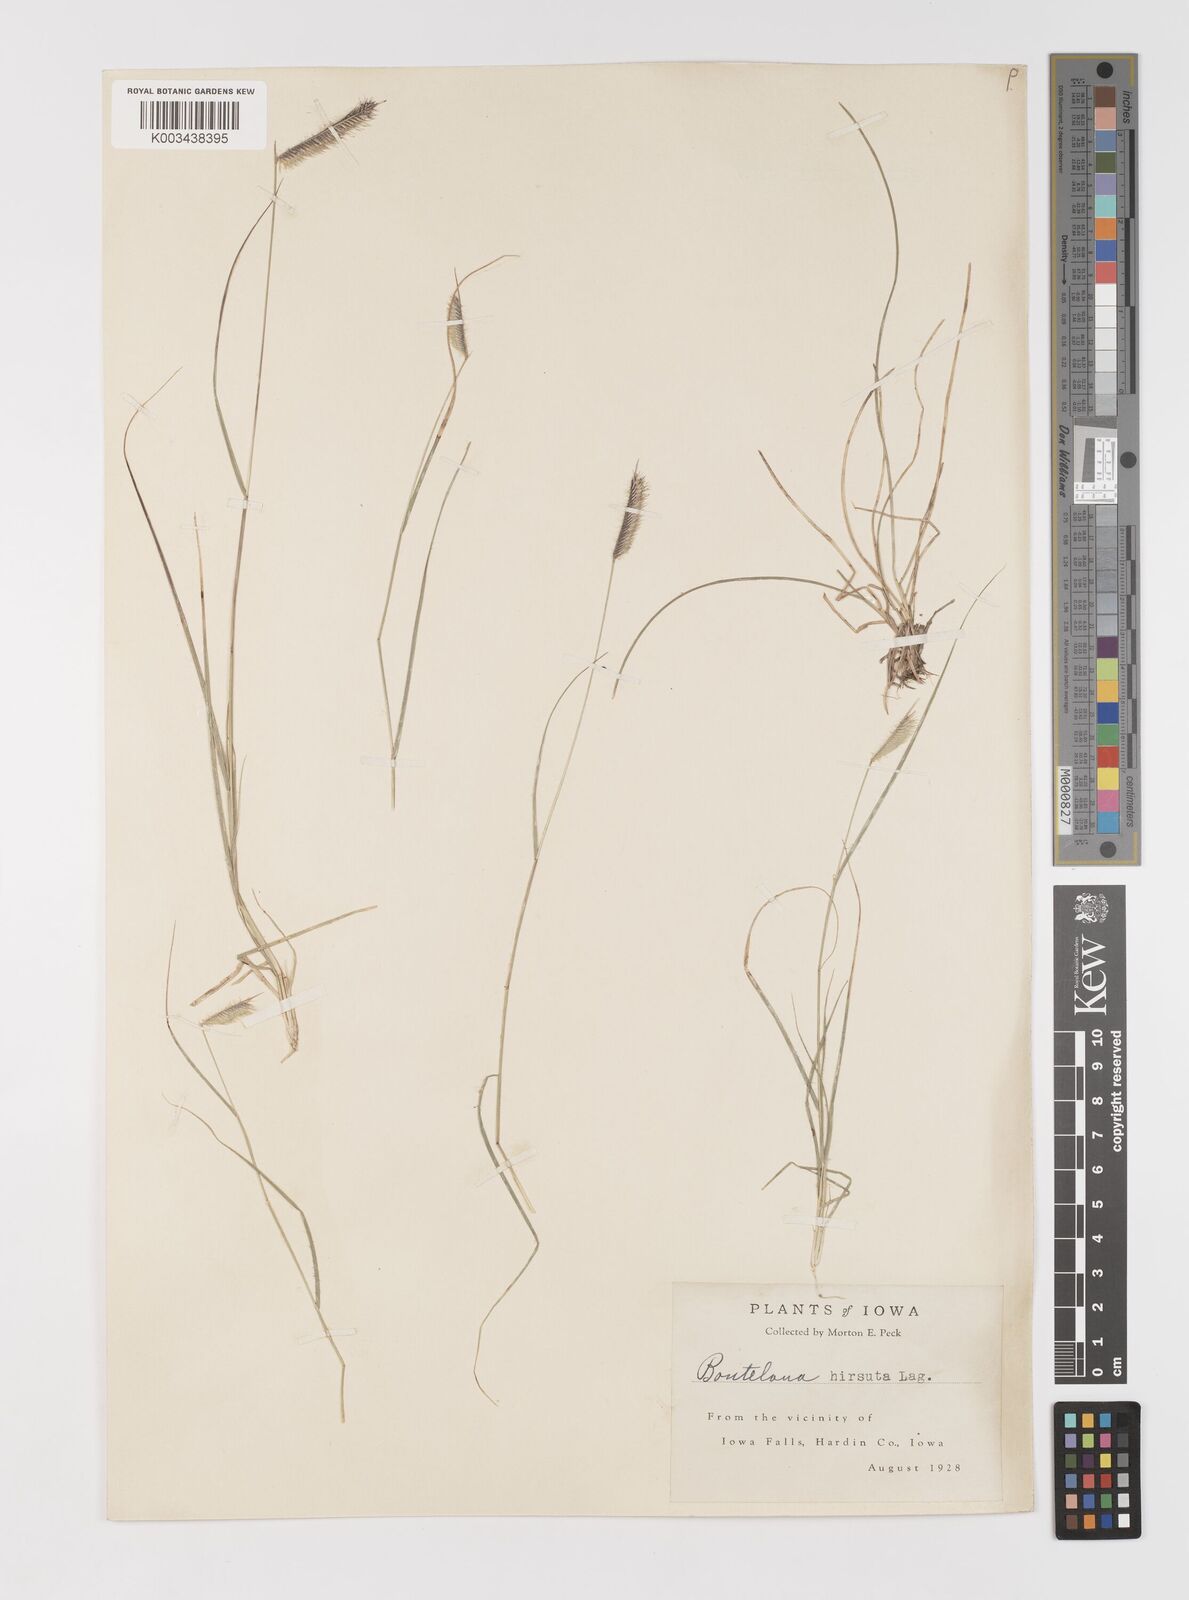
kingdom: Plantae
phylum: Tracheophyta
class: Liliopsida
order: Poales
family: Poaceae
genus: Bouteloua
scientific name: Bouteloua hirsuta
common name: Hairy grama
